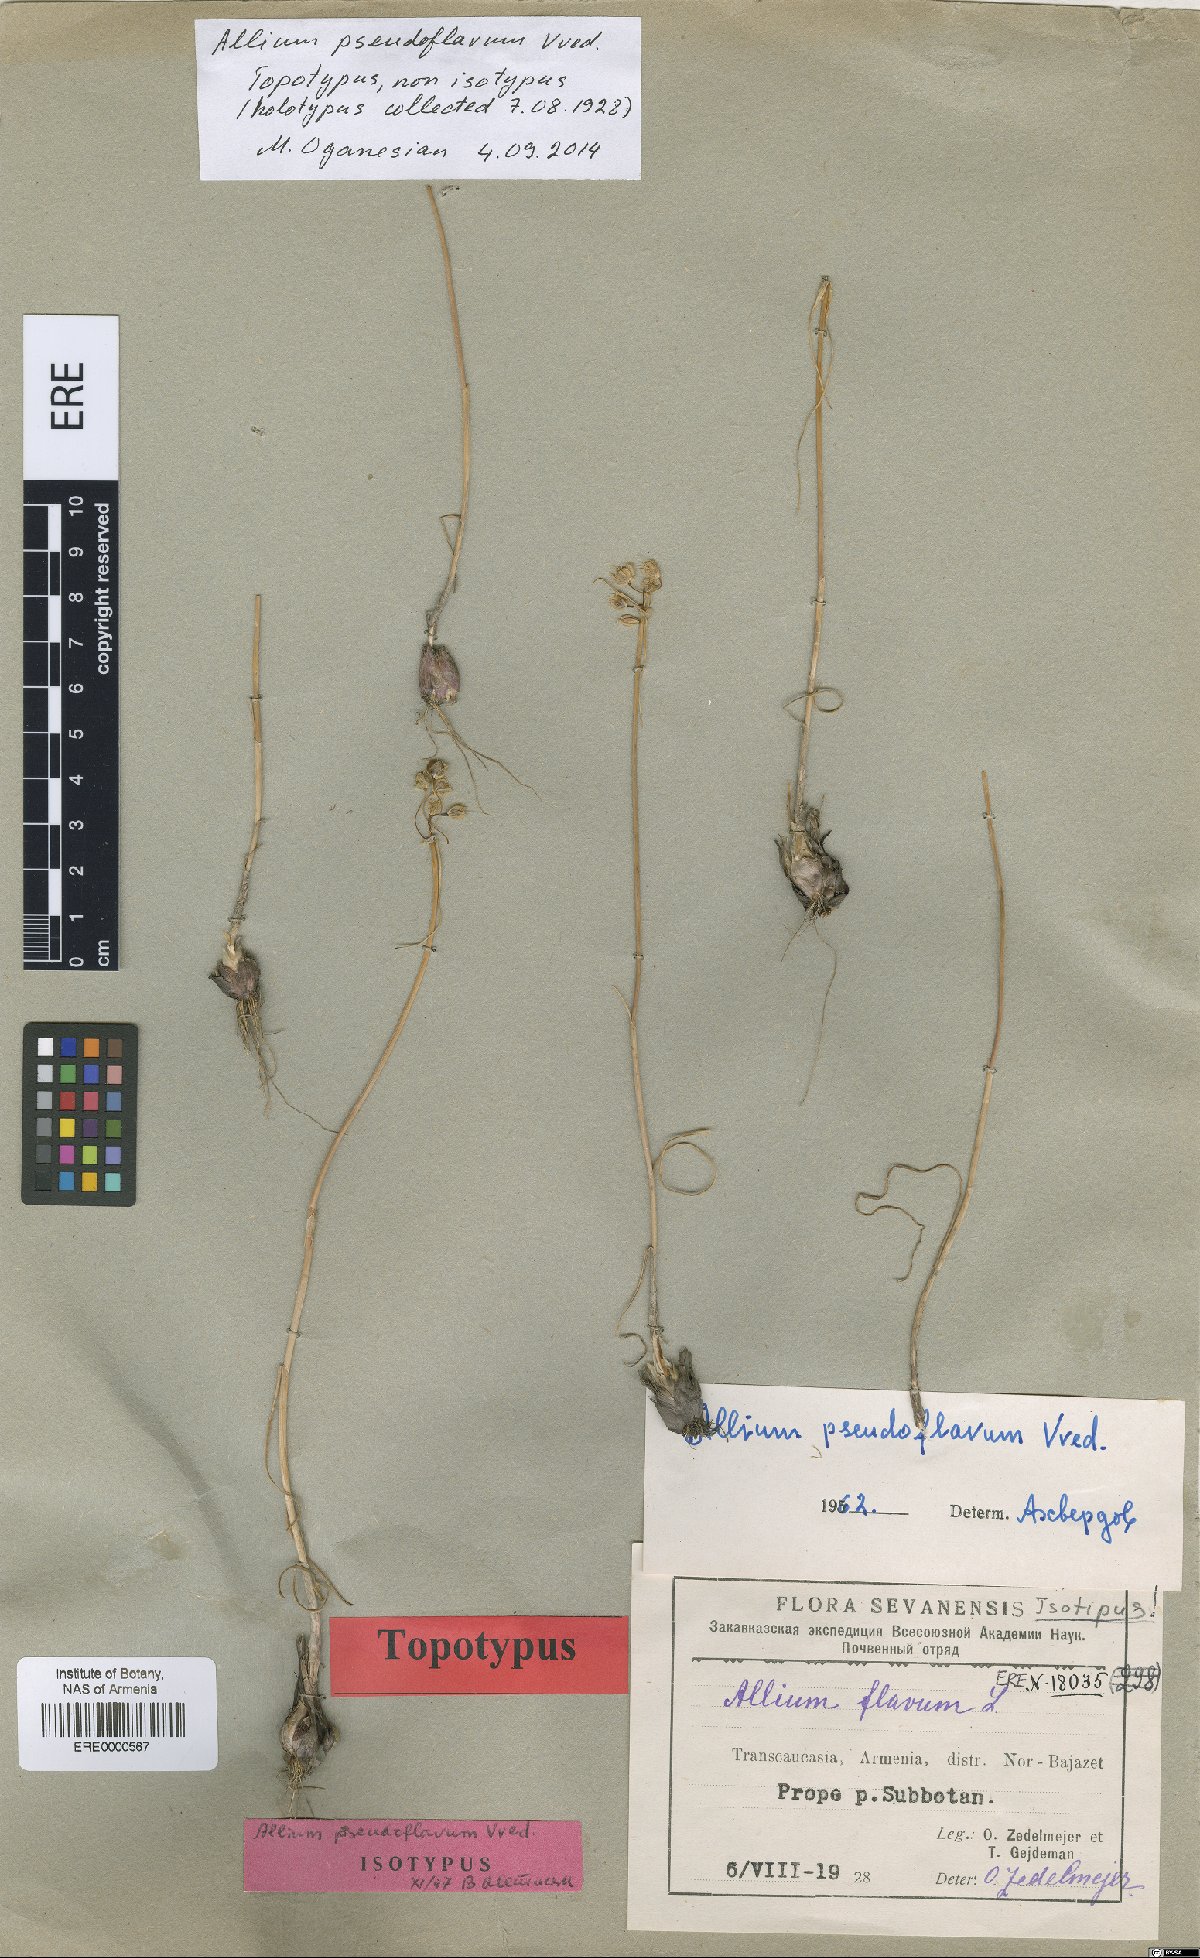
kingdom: Plantae
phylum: Tracheophyta
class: Liliopsida
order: Asparagales
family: Amaryllidaceae
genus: Allium
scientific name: Allium pseudoflavum
